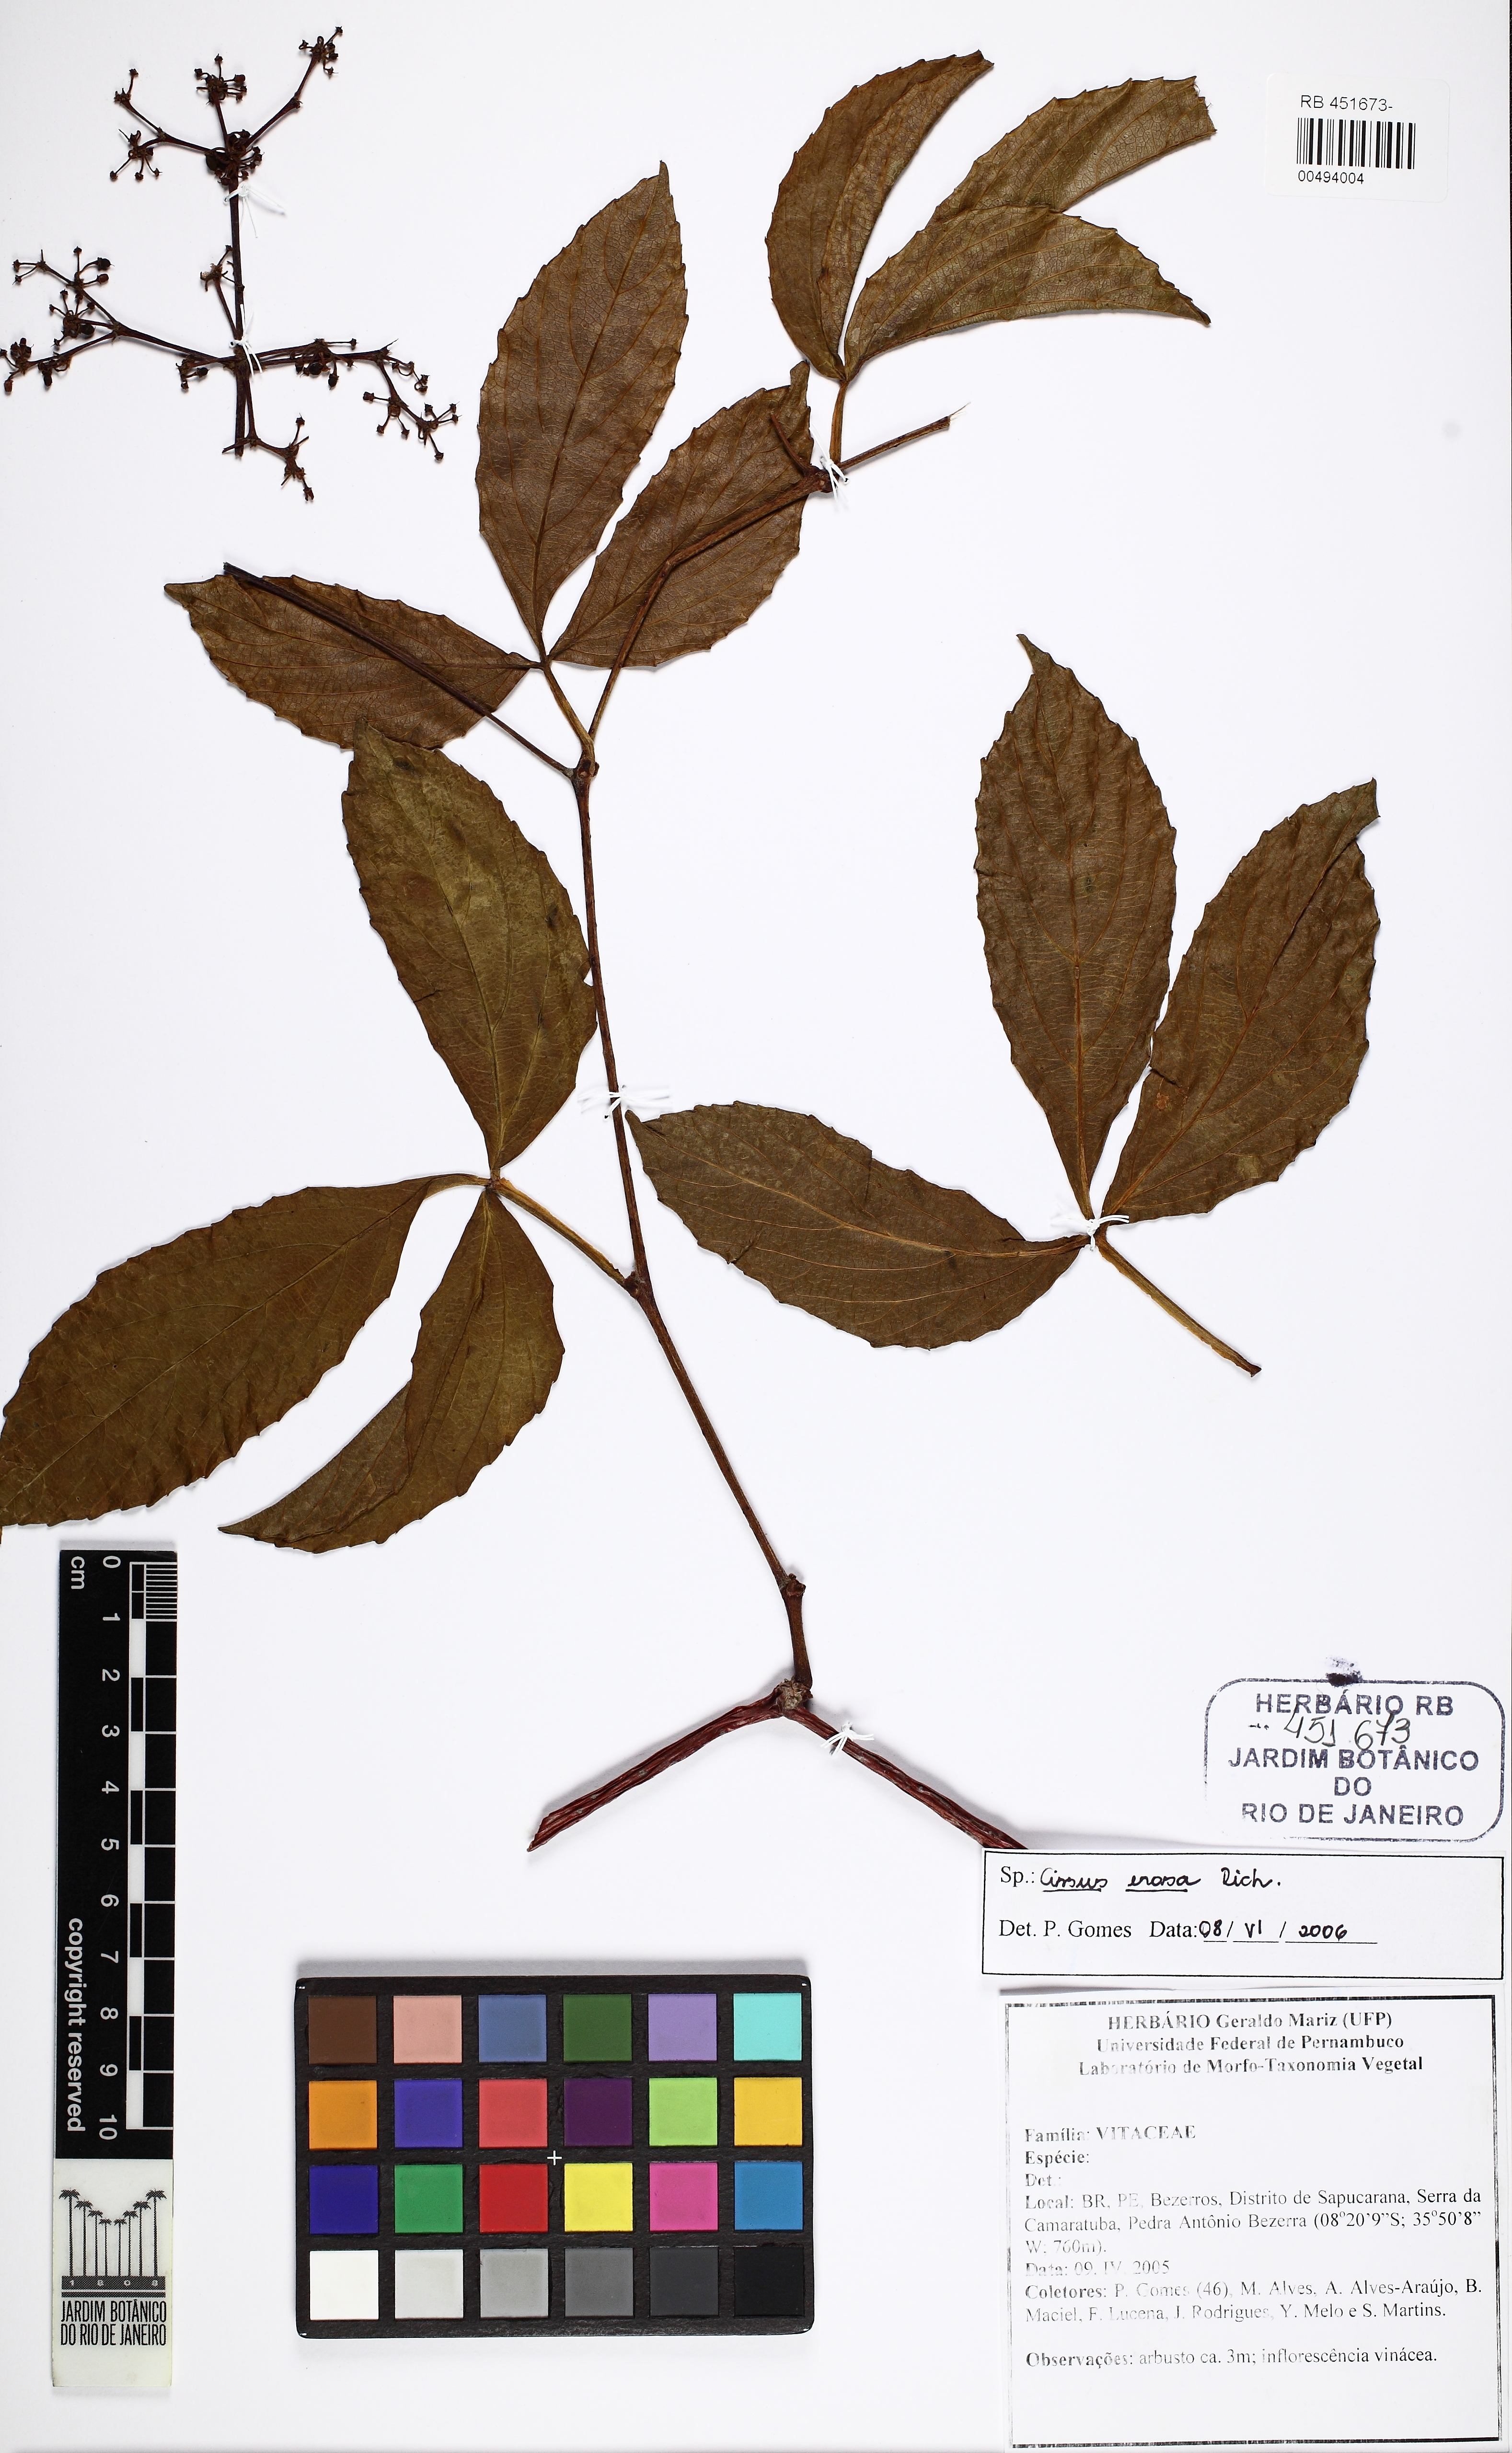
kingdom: Plantae
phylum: Tracheophyta
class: Magnoliopsida
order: Vitales
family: Vitaceae
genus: Cissus
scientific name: Cissus erosa
